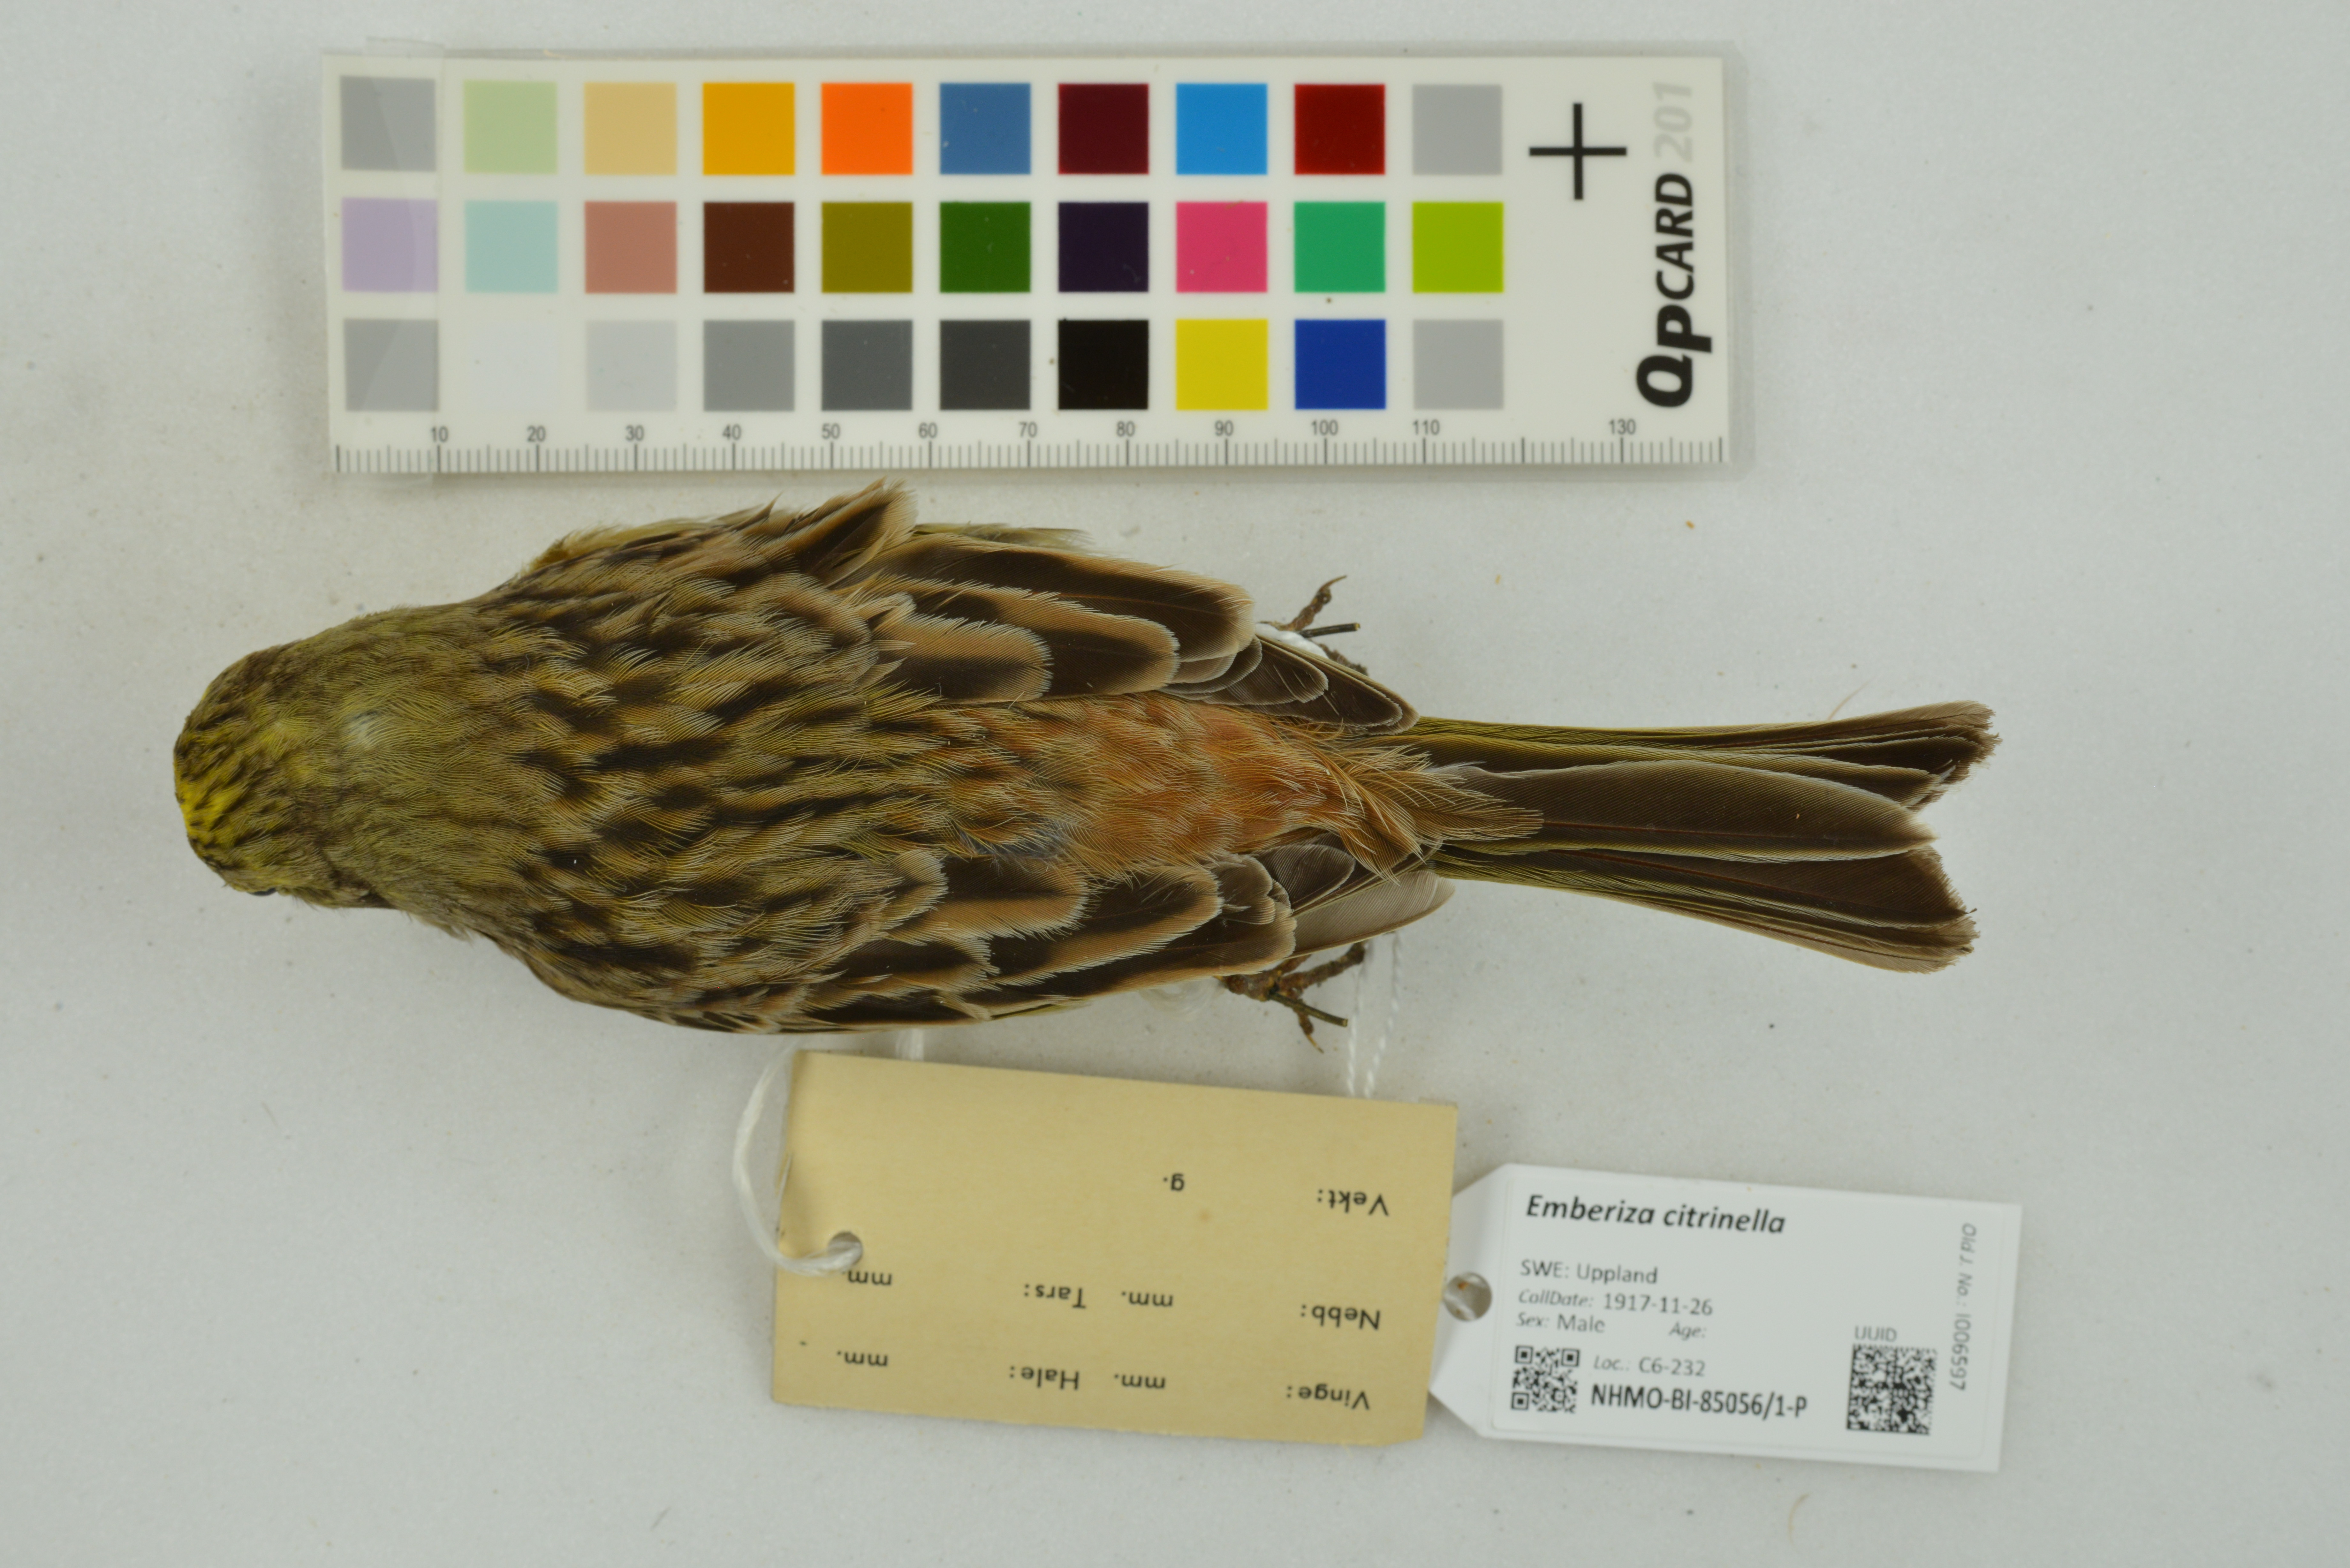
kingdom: Animalia
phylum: Chordata
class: Aves
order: Passeriformes
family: Emberizidae
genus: Emberiza
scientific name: Emberiza citrinella
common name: Yellowhammer
